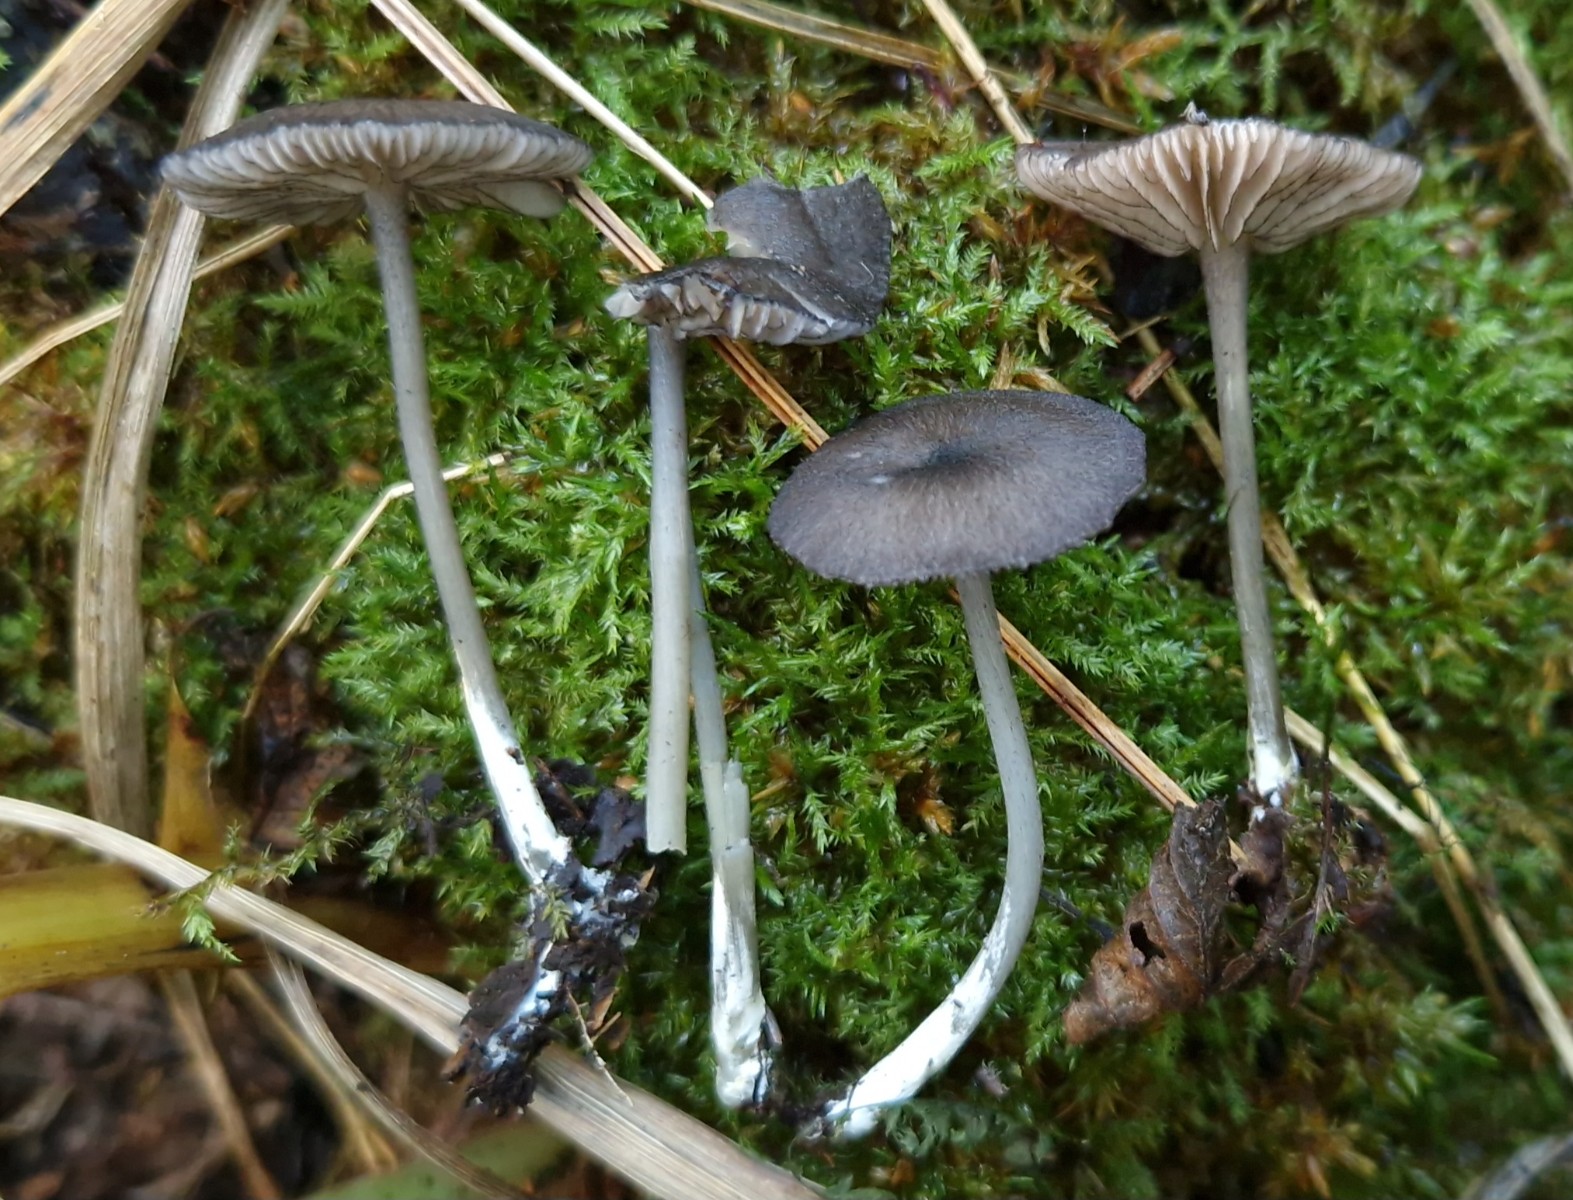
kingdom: Fungi
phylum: Basidiomycota
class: Agaricomycetes
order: Agaricales
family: Entolomataceae
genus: Entoloma
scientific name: Entoloma
